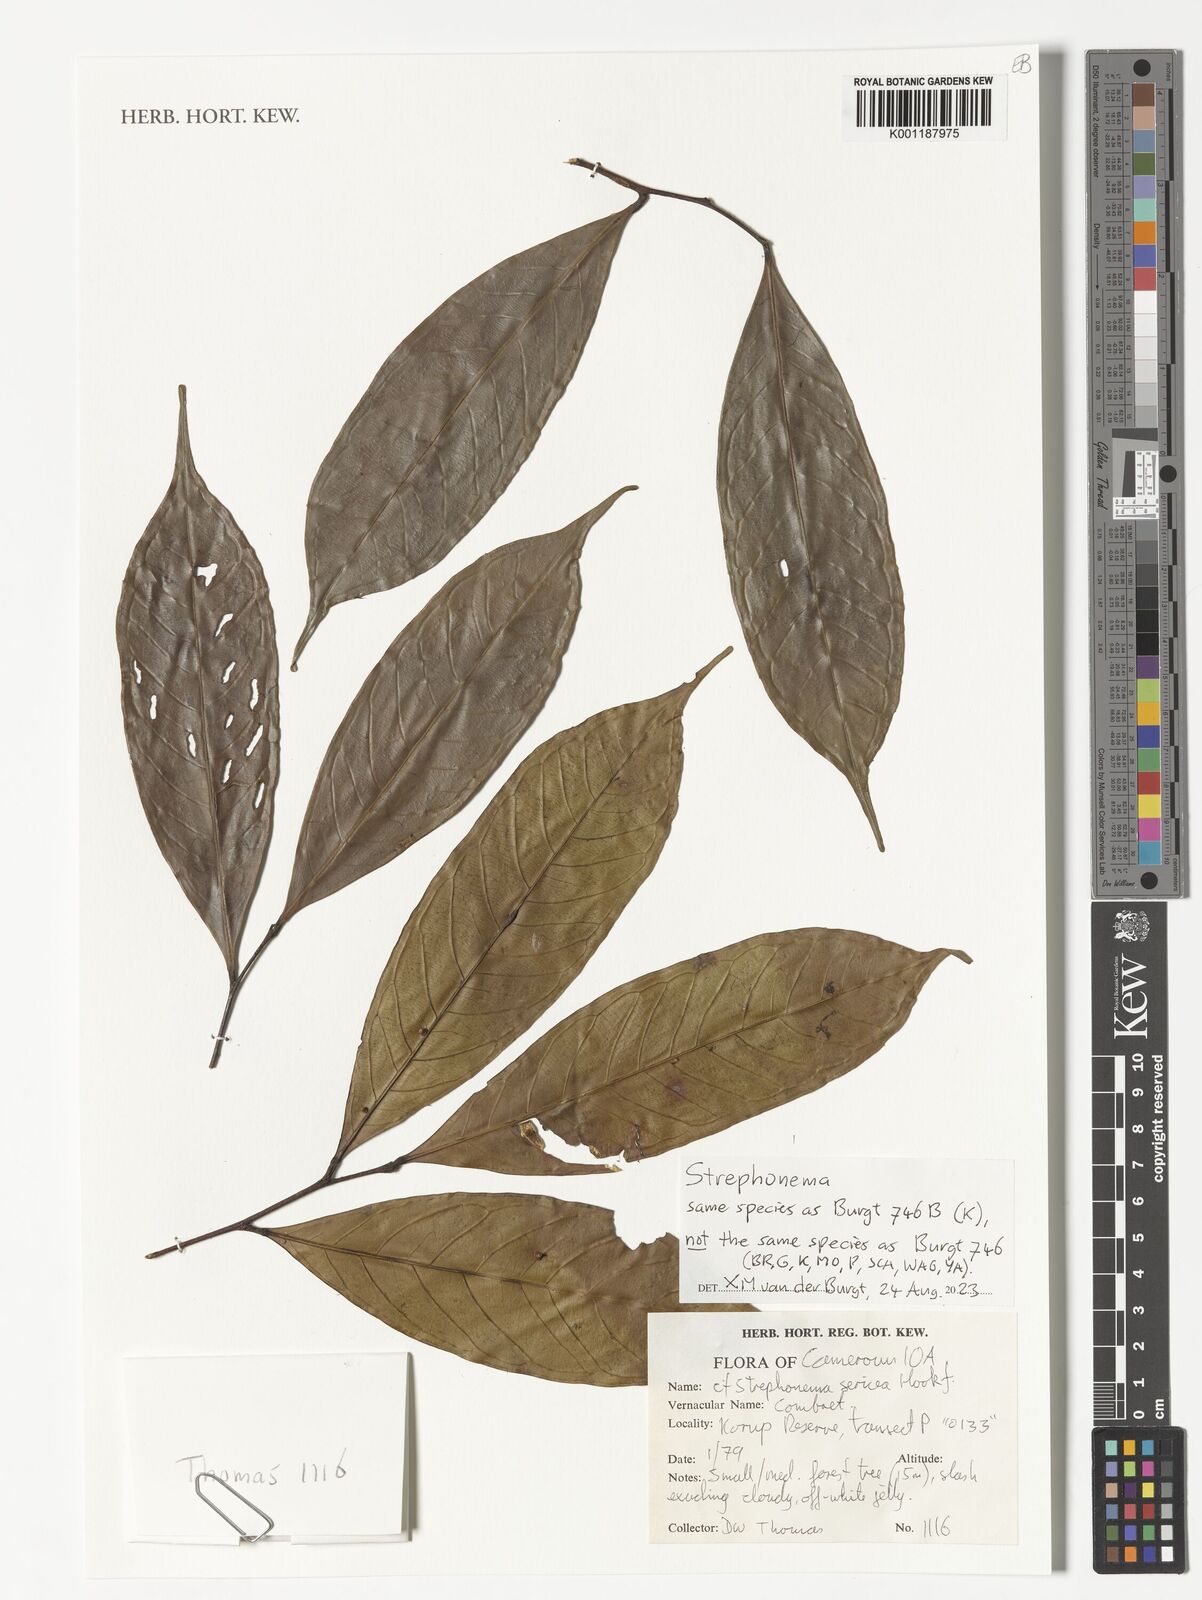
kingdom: Plantae
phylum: Tracheophyta
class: Magnoliopsida
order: Myrtales
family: Combretaceae
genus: Strephonema
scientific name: Strephonema
